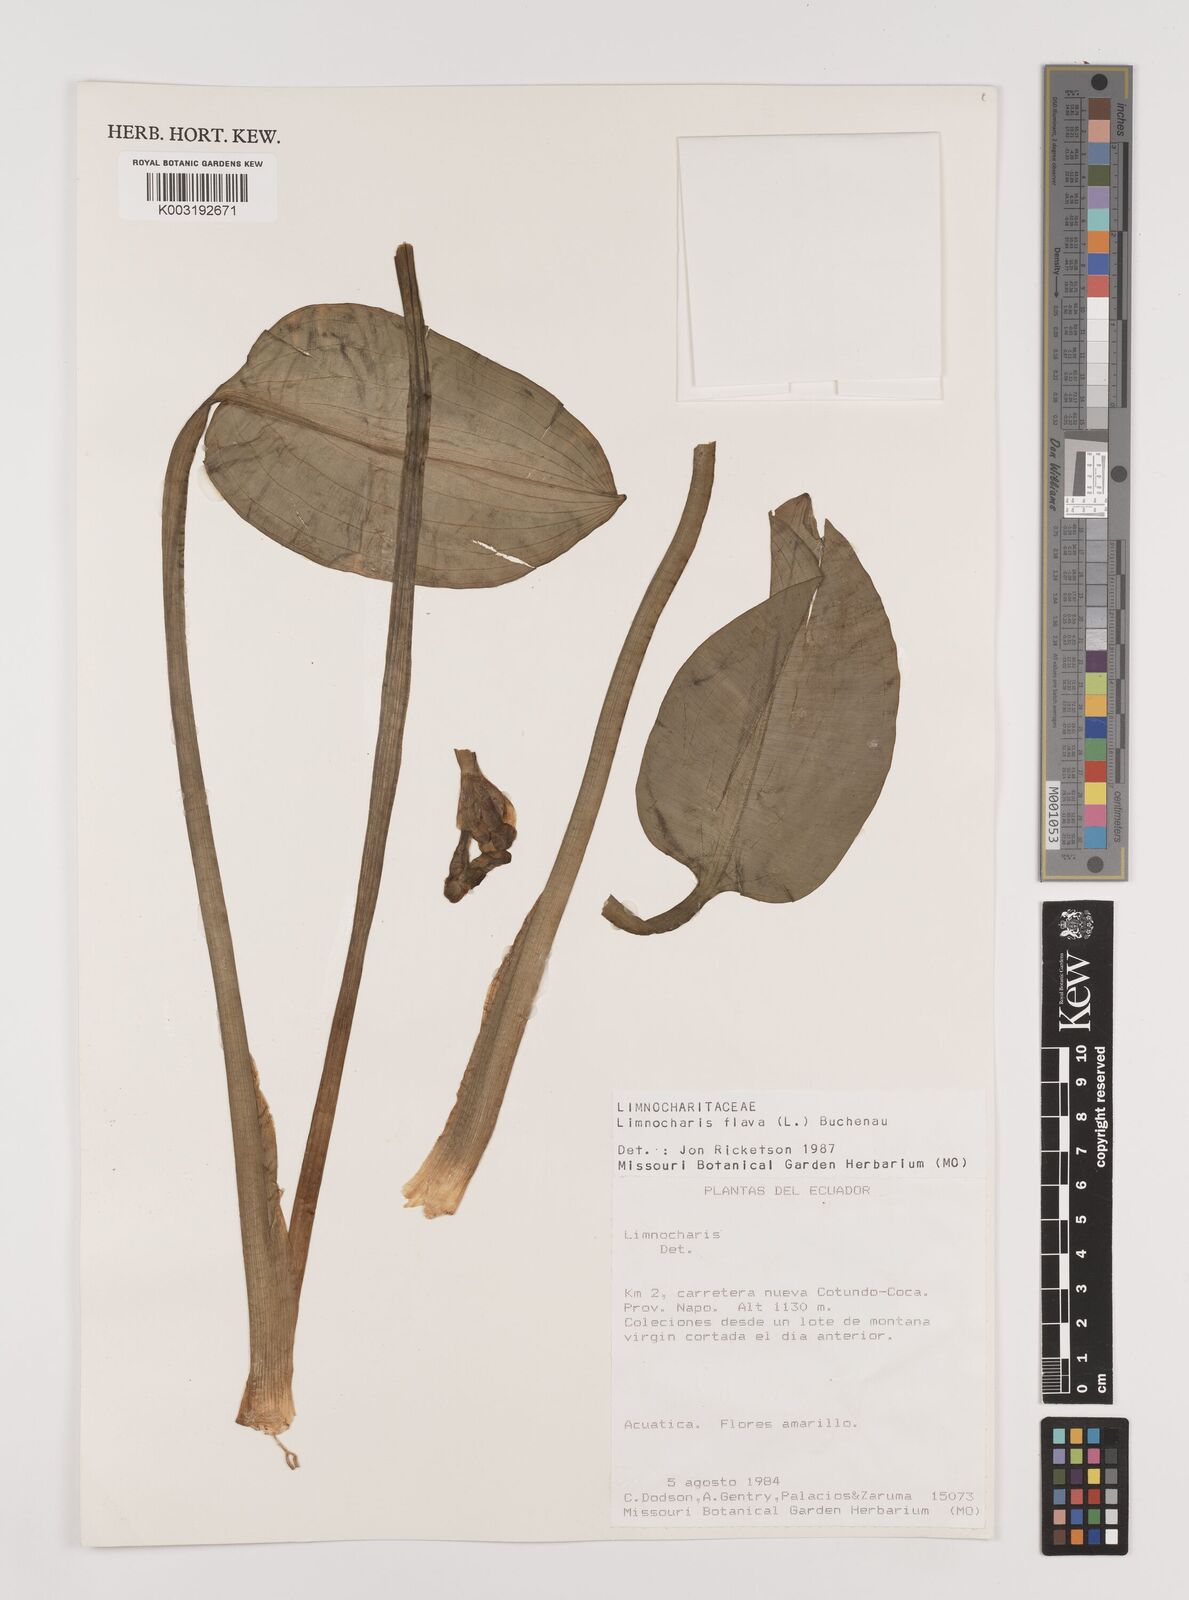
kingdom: Plantae
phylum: Tracheophyta
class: Liliopsida
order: Alismatales
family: Alismataceae
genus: Limnocharis
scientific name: Limnocharis flava
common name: Sawah-flower-rush
